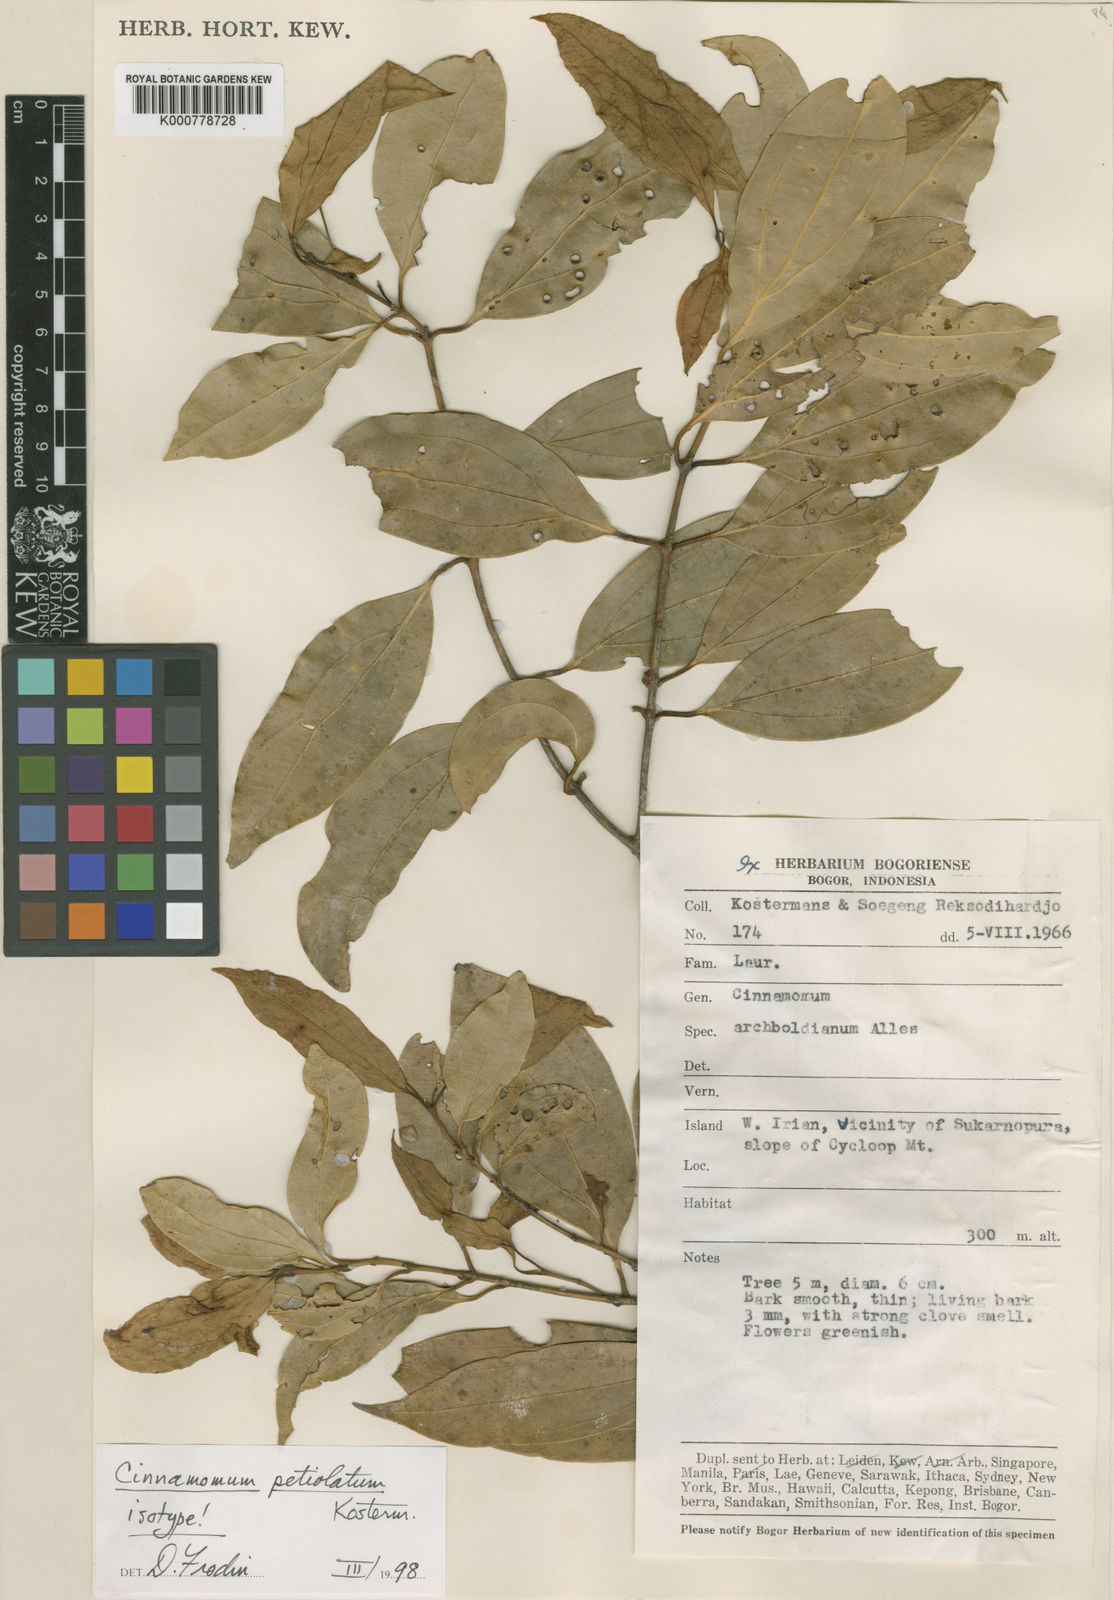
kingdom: Plantae
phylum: Tracheophyta
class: Magnoliopsida
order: Laurales
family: Lauraceae
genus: Cinnamomum
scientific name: Cinnamomum petiolatum
